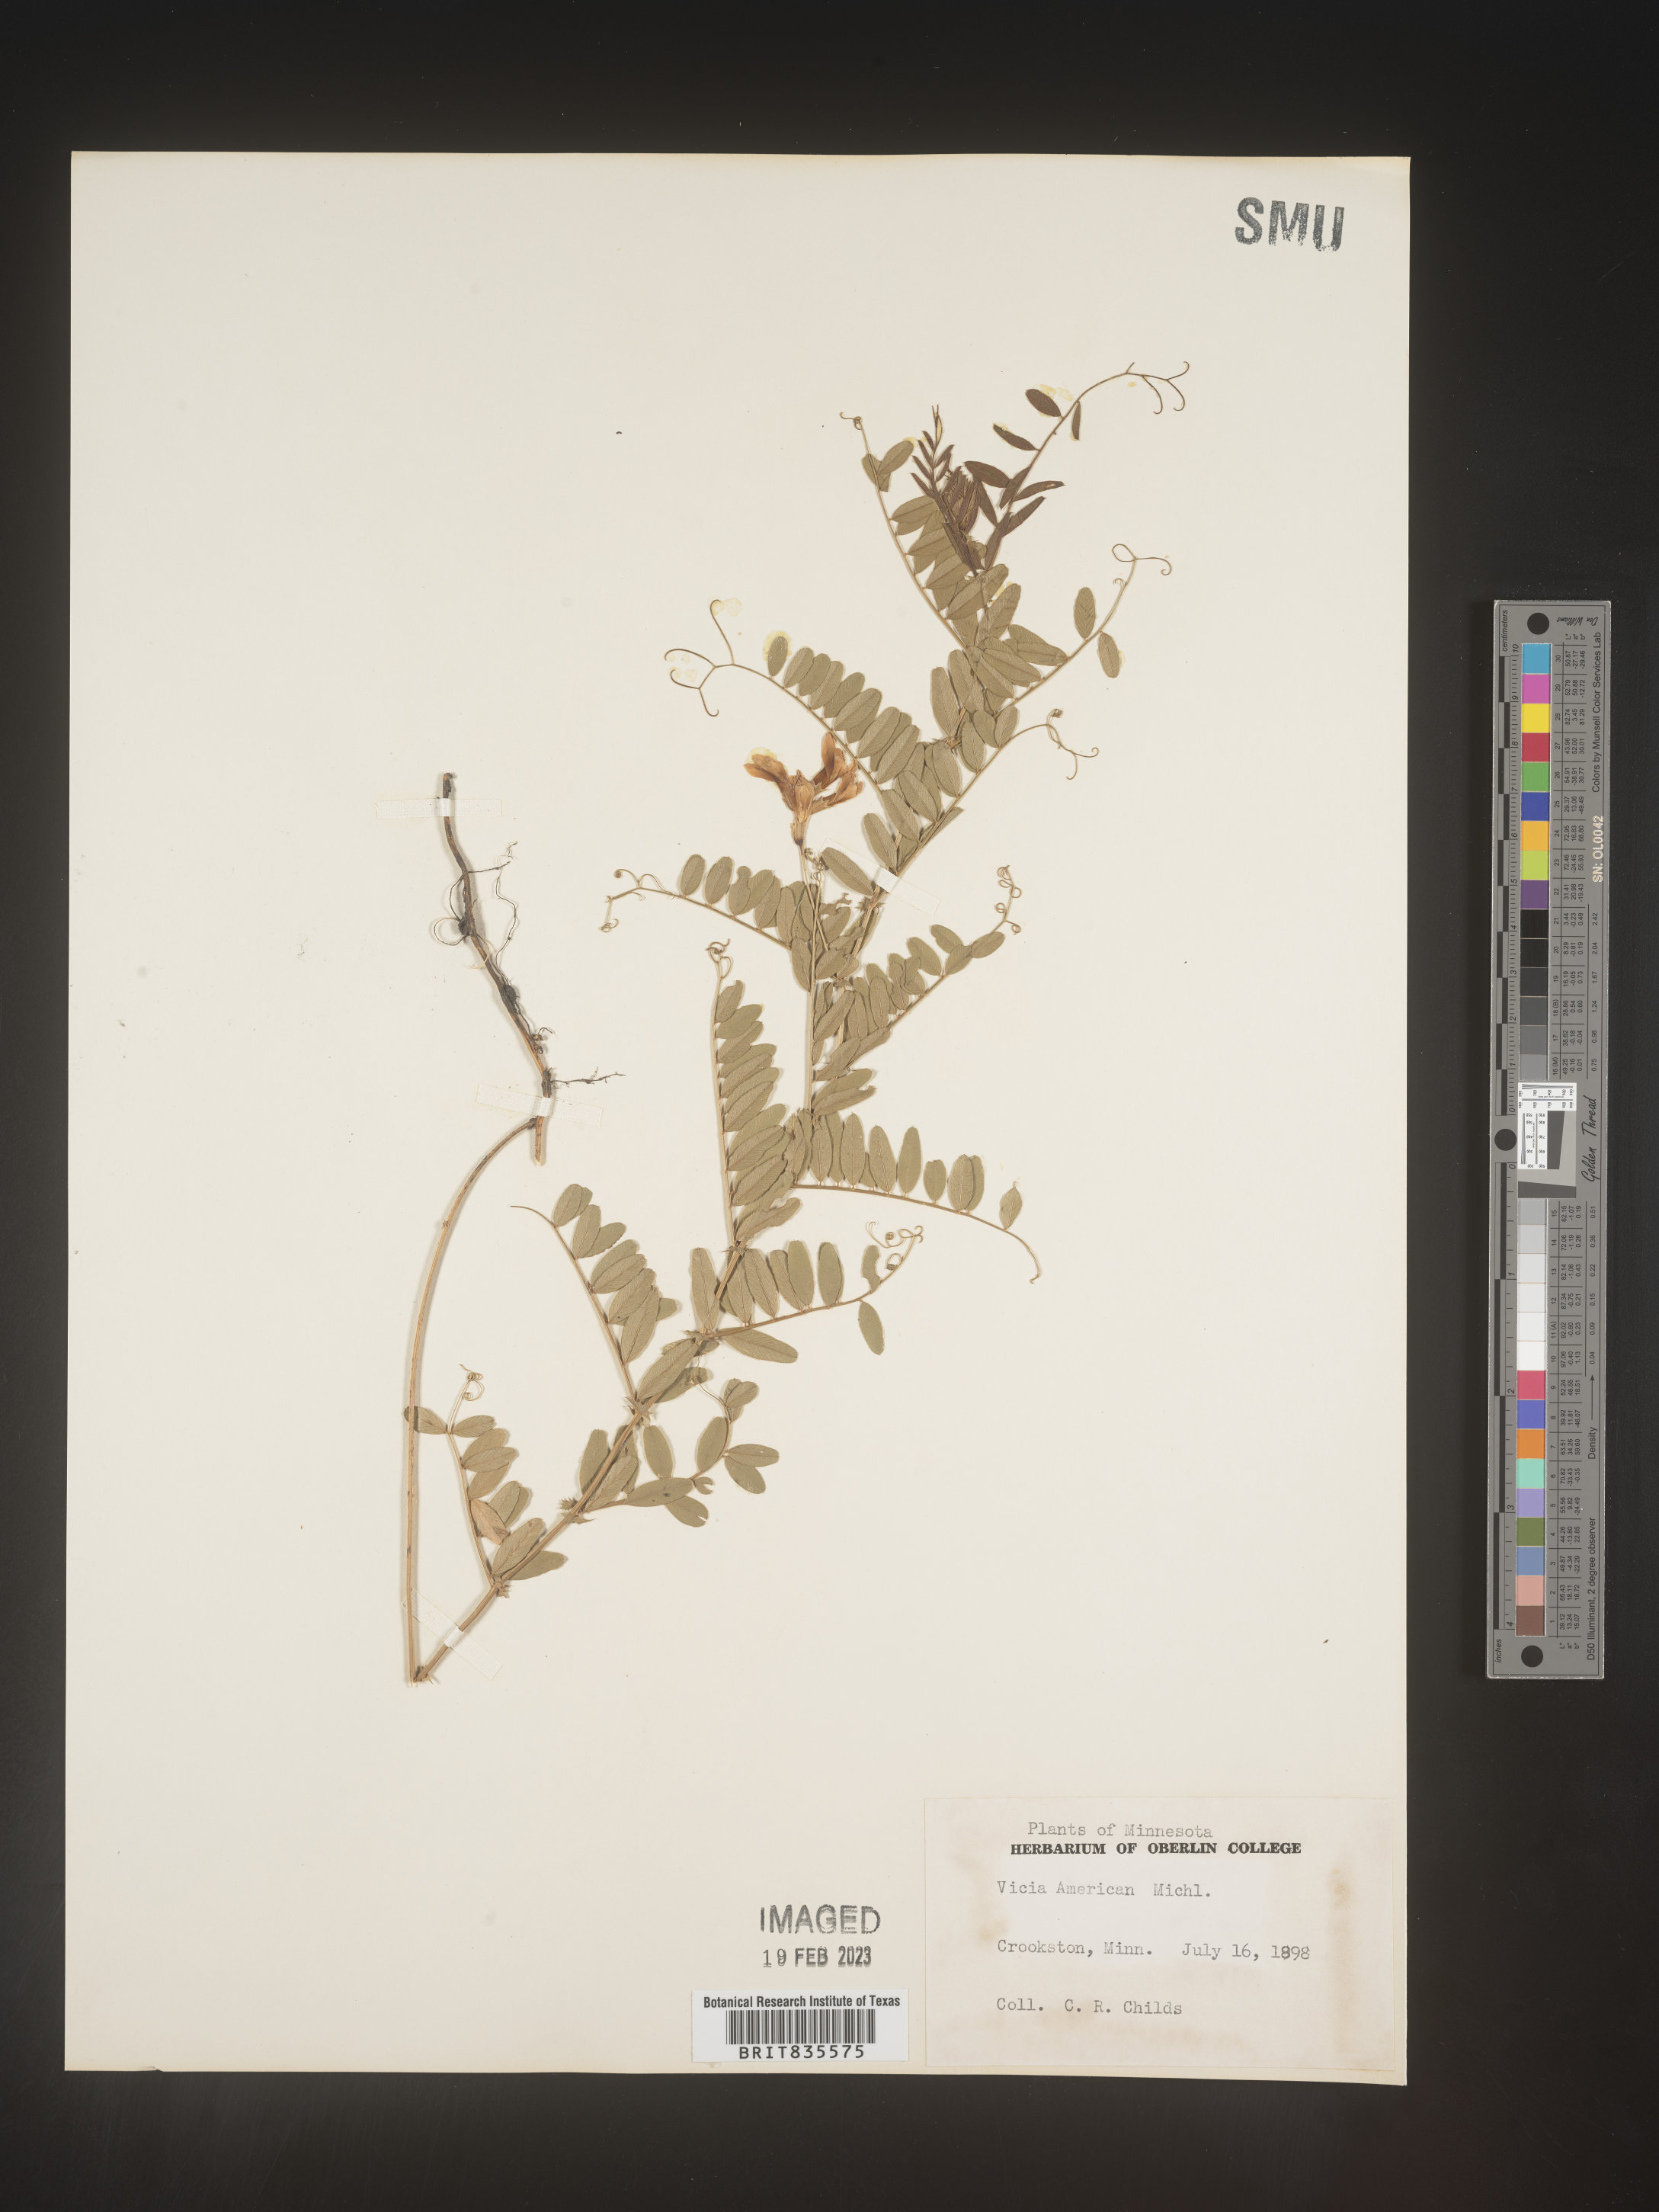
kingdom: Plantae
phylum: Tracheophyta
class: Magnoliopsida
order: Fabales
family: Fabaceae
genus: Vicia
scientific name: Vicia americana
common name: American vetch
